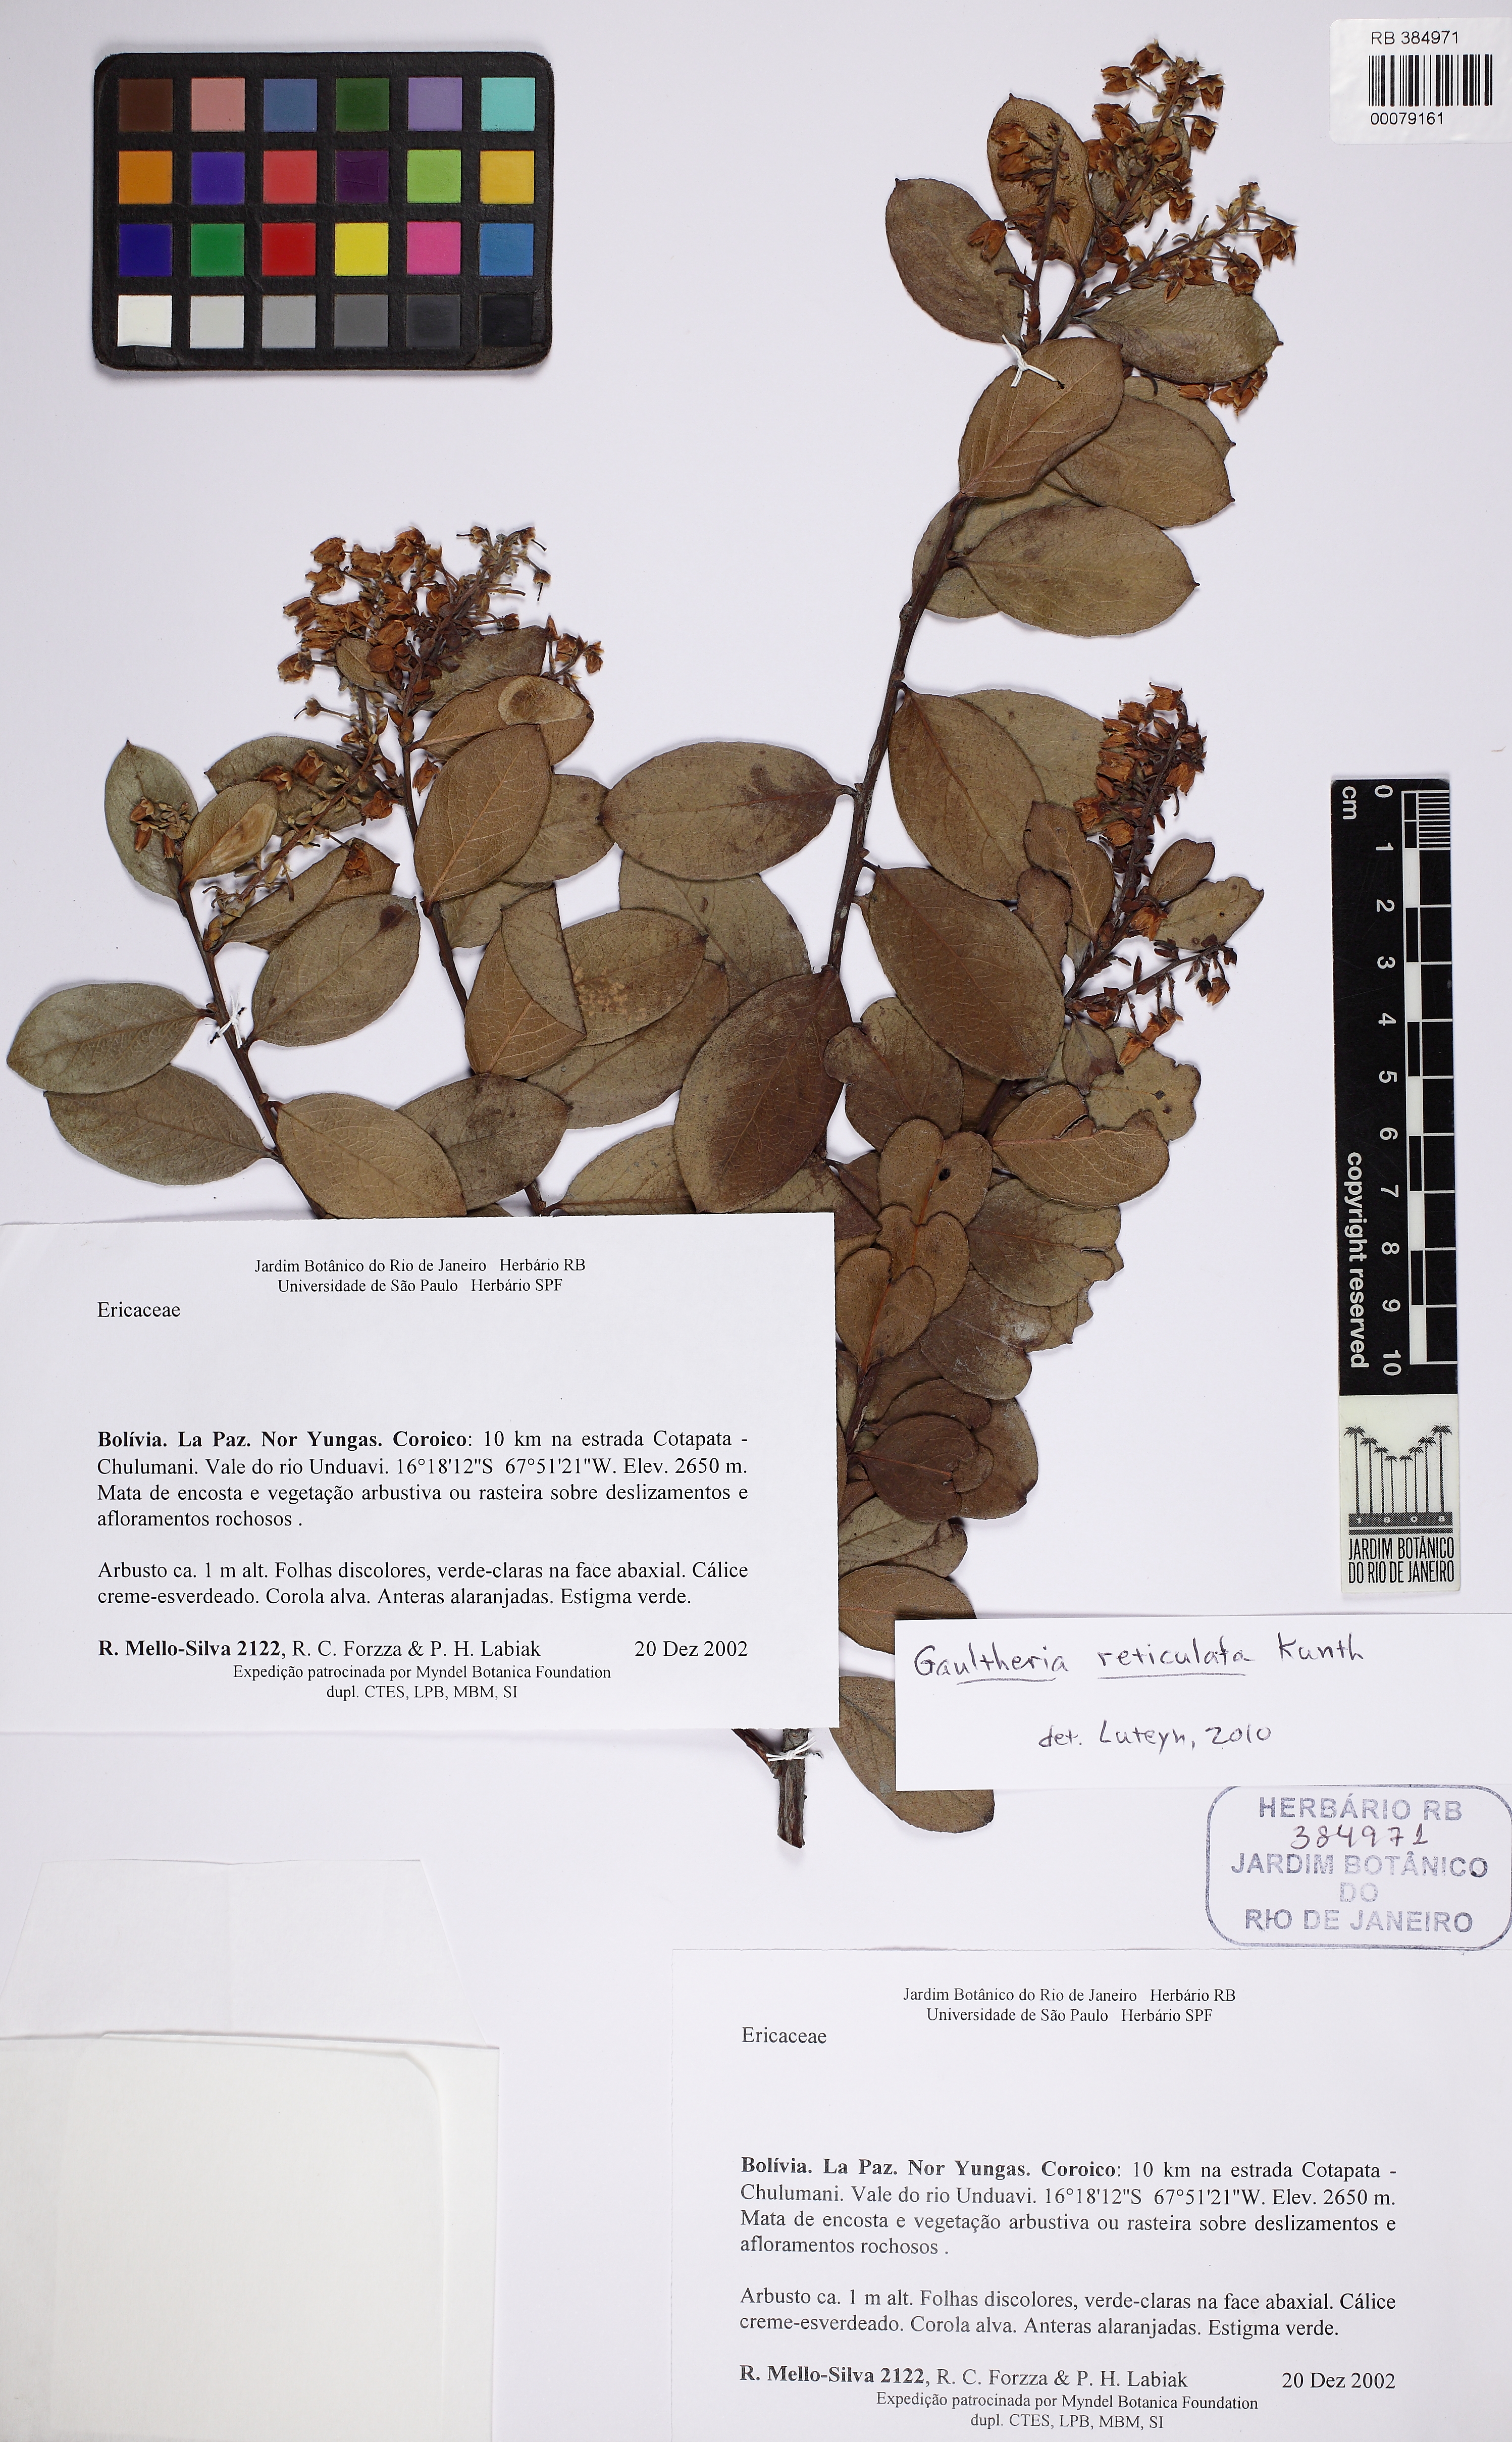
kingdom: Plantae
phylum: Tracheophyta
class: Magnoliopsida
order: Ericales
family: Ericaceae
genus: Gaultheria
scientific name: Gaultheria reticulata
